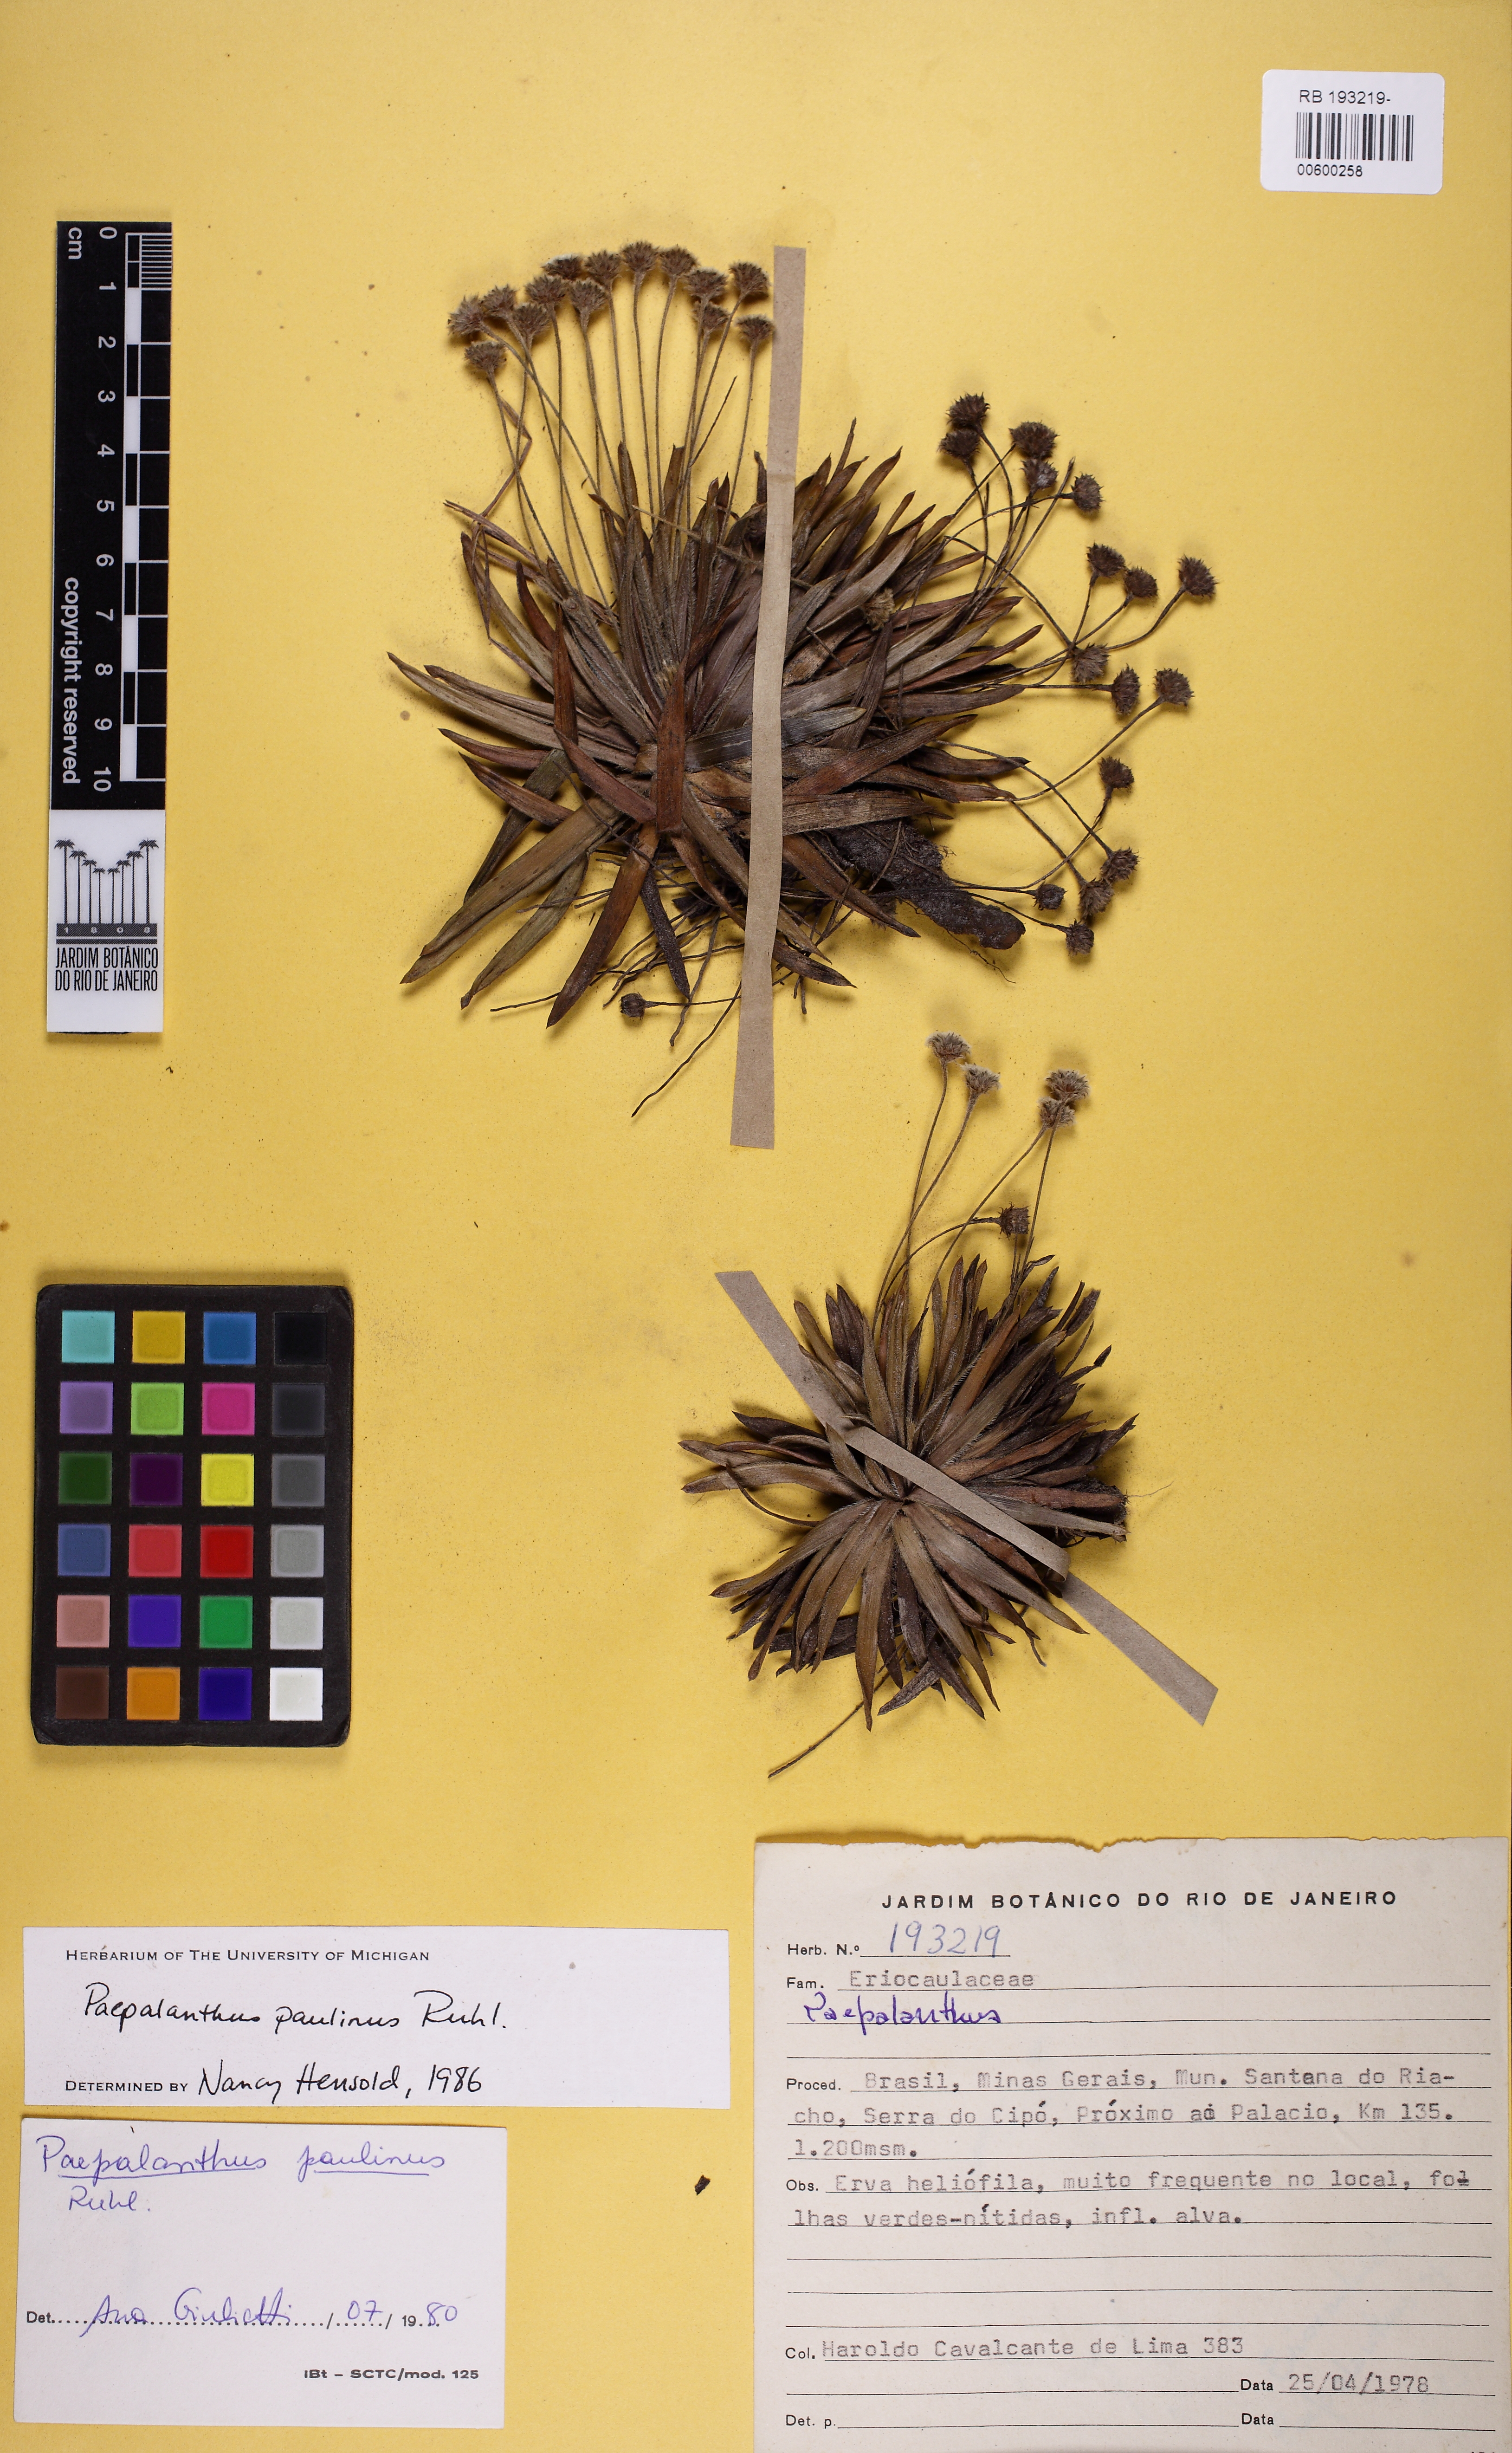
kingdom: Plantae
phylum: Tracheophyta
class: Liliopsida
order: Poales
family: Eriocaulaceae
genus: Paepalanthus
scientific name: Paepalanthus paulinus
